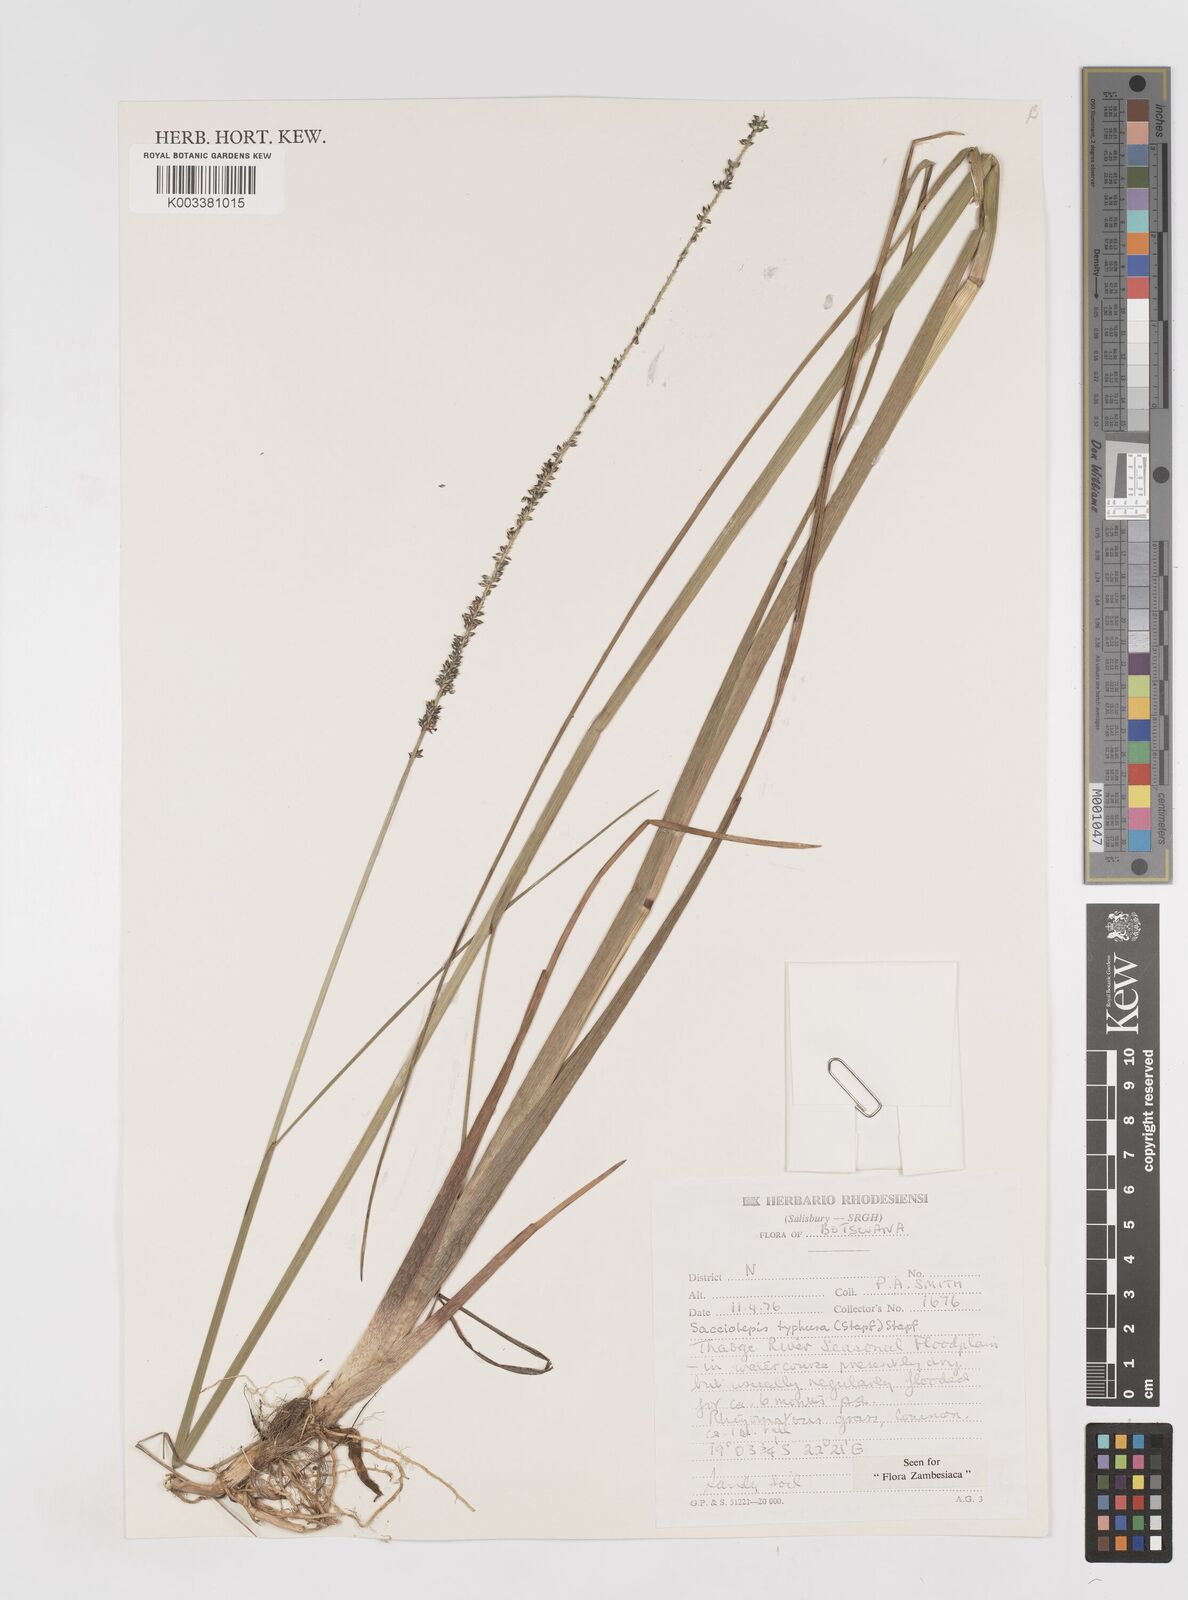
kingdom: Plantae
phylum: Tracheophyta
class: Liliopsida
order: Poales
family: Poaceae
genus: Sacciolepis
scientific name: Sacciolepis typhura
